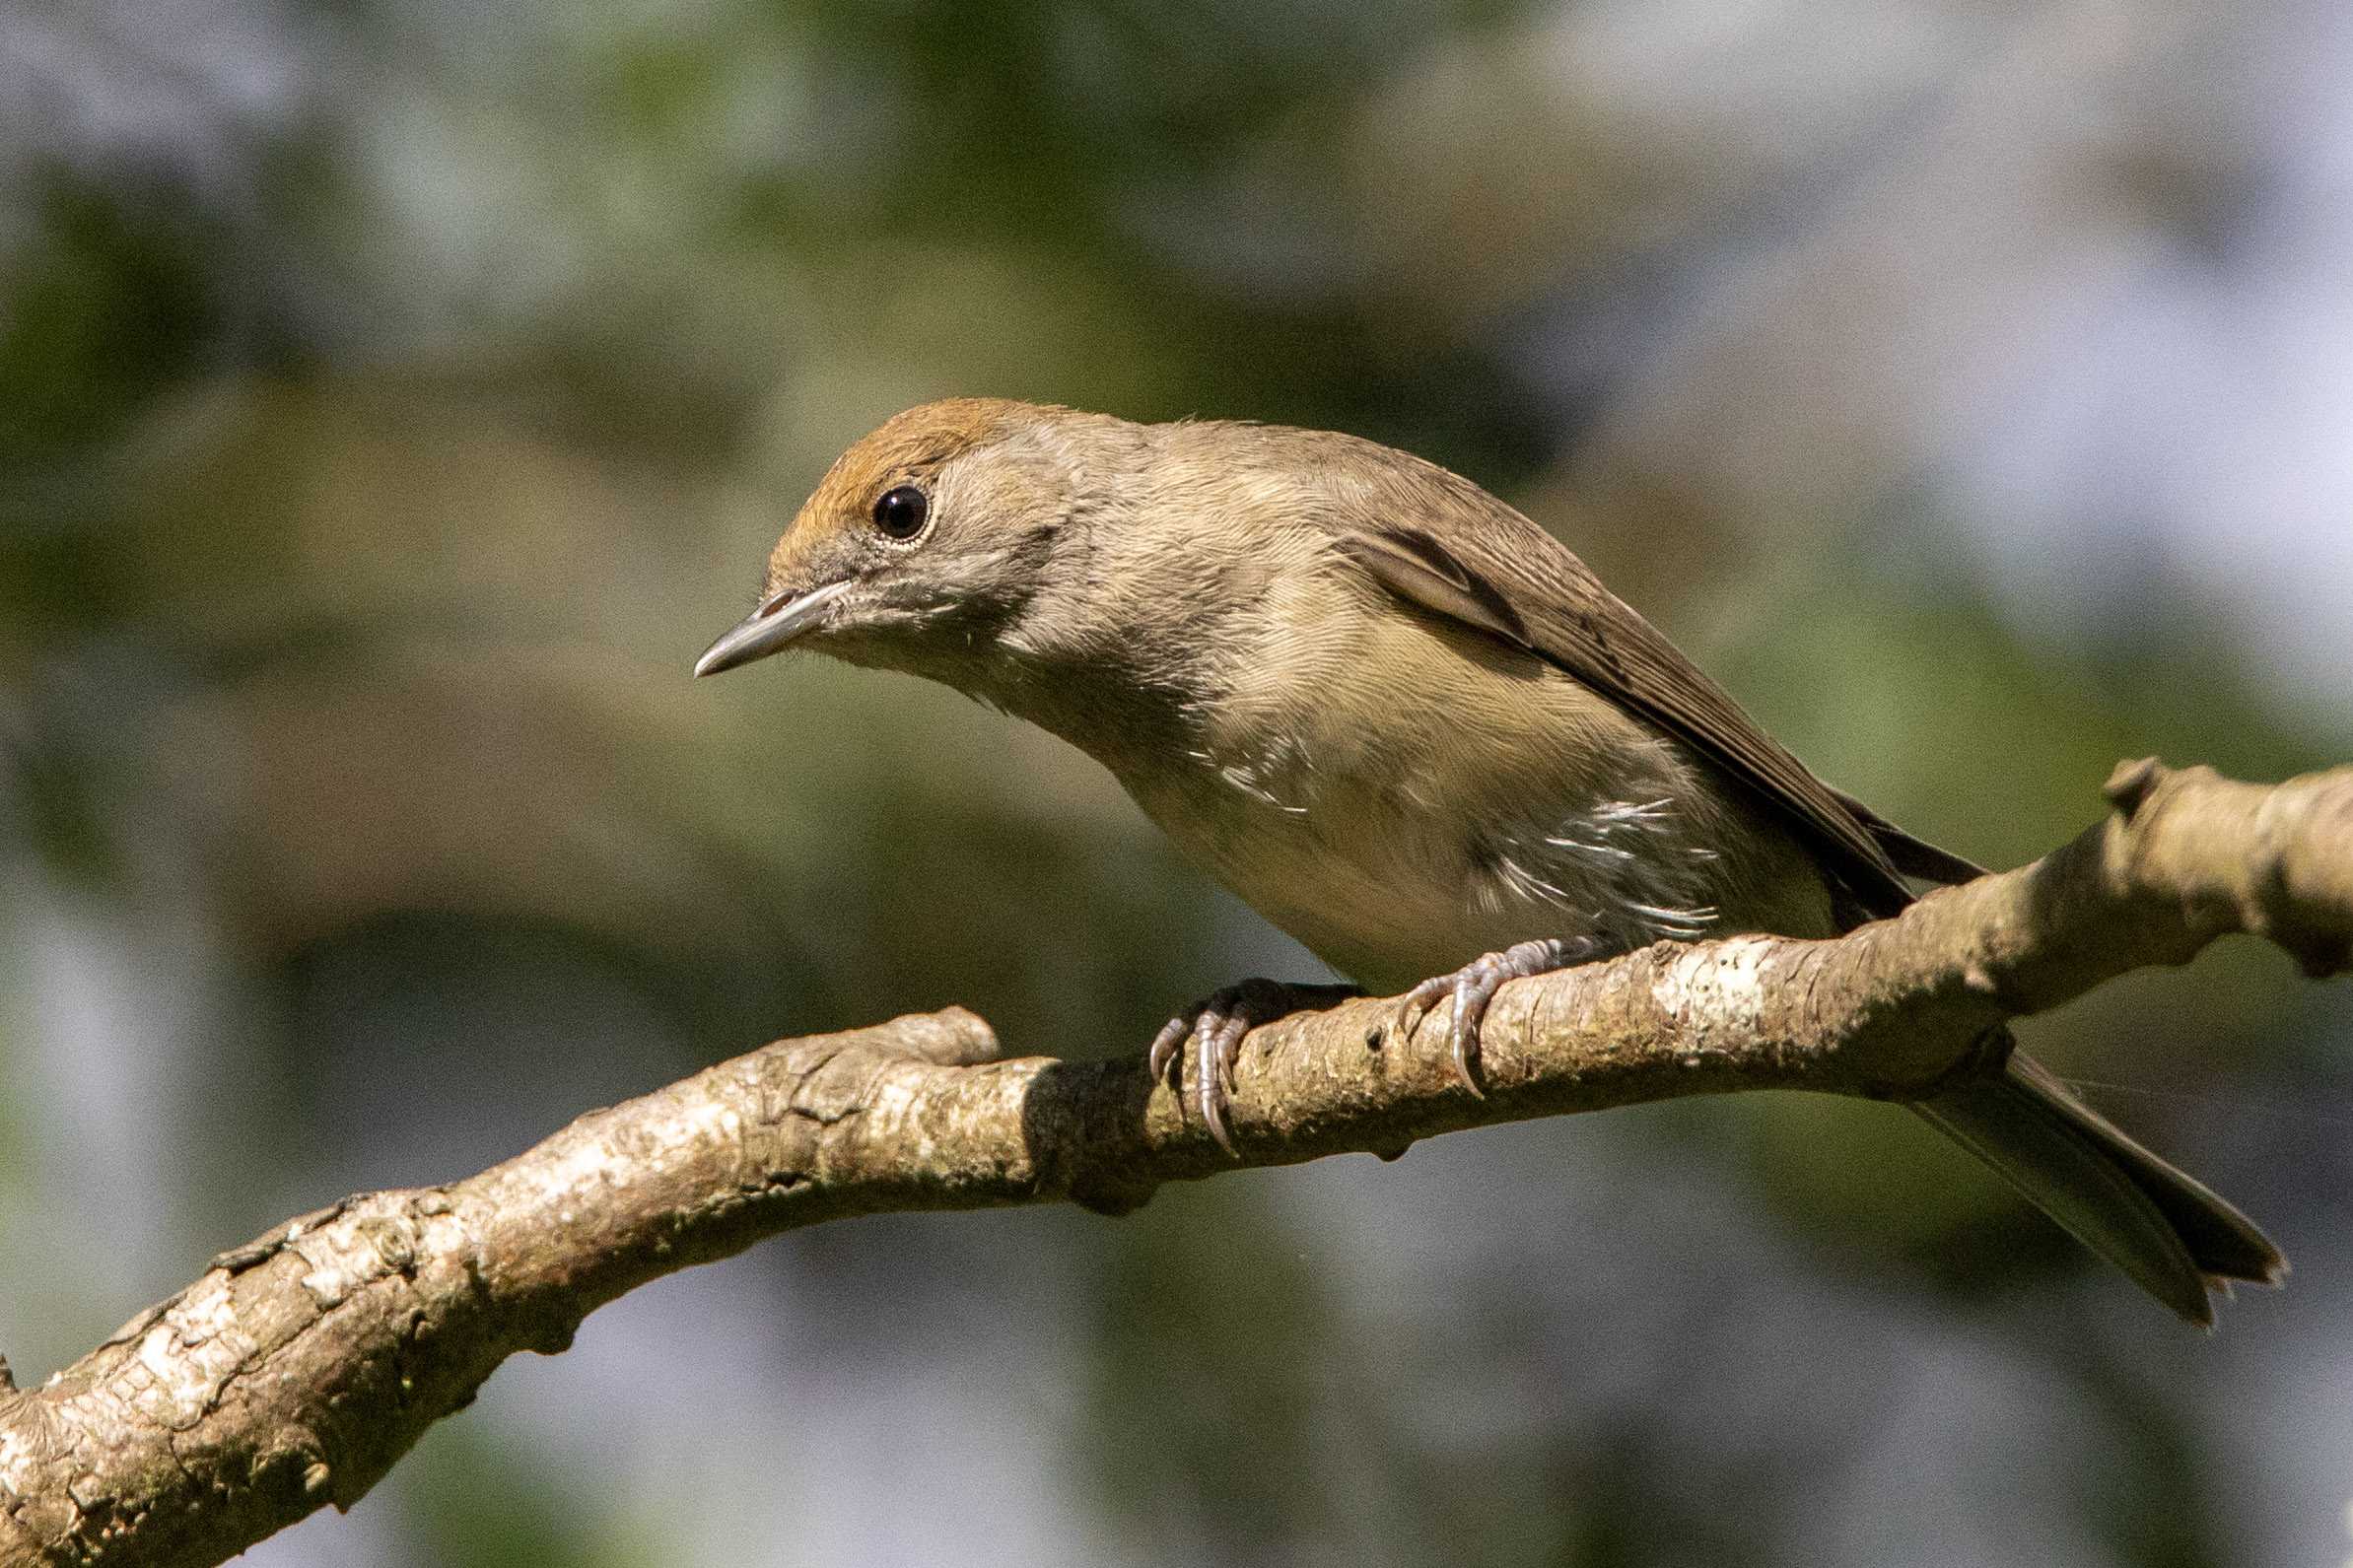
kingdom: Animalia
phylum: Chordata
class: Aves
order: Passeriformes
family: Sylviidae
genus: Sylvia
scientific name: Sylvia atricapilla
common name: Munk
